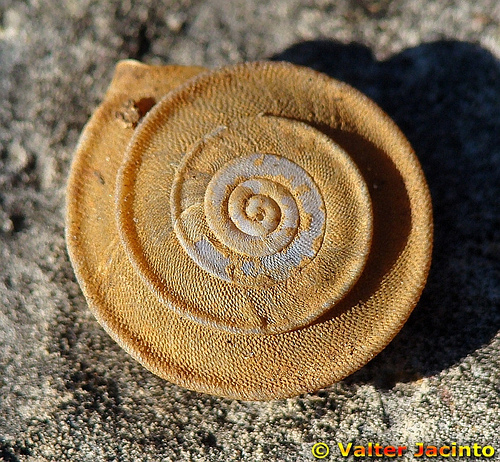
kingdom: Animalia
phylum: Mollusca
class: Gastropoda
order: Stylommatophora
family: Trissexodontidae
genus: Gittenbergeria
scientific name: Gittenbergeria turriplana
